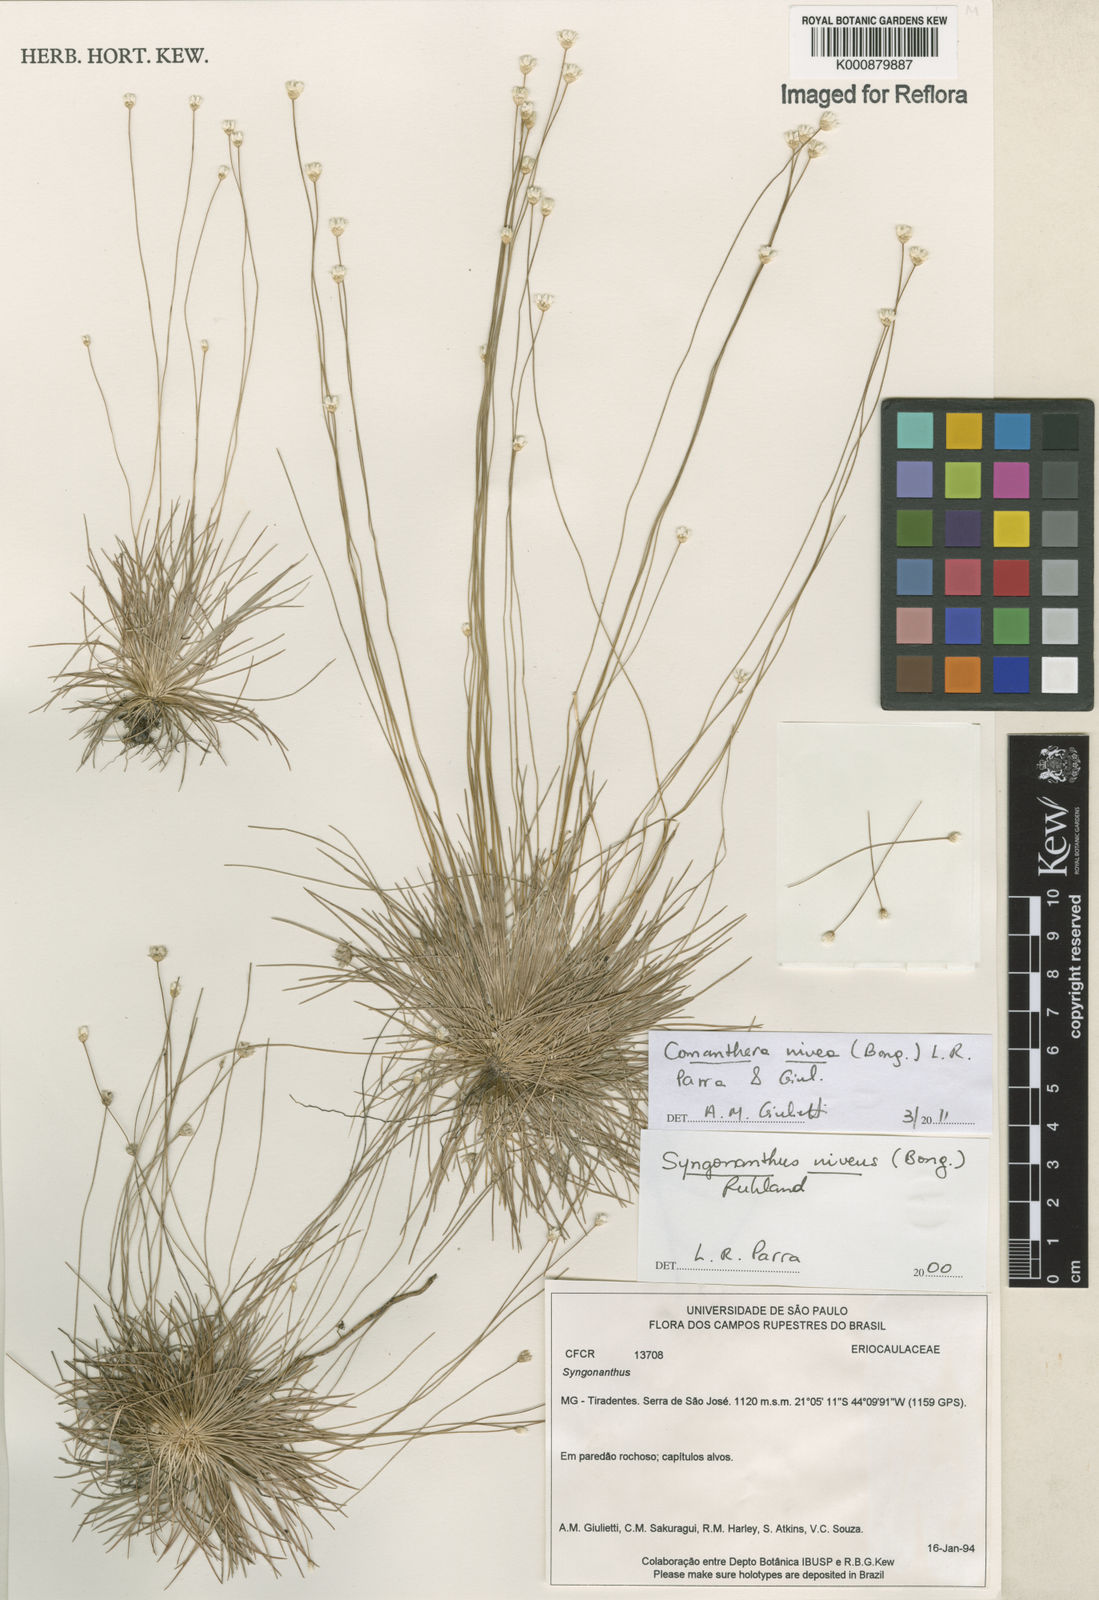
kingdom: Plantae
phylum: Tracheophyta
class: Liliopsida
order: Poales
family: Eriocaulaceae
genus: Comanthera
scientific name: Comanthera nivea
